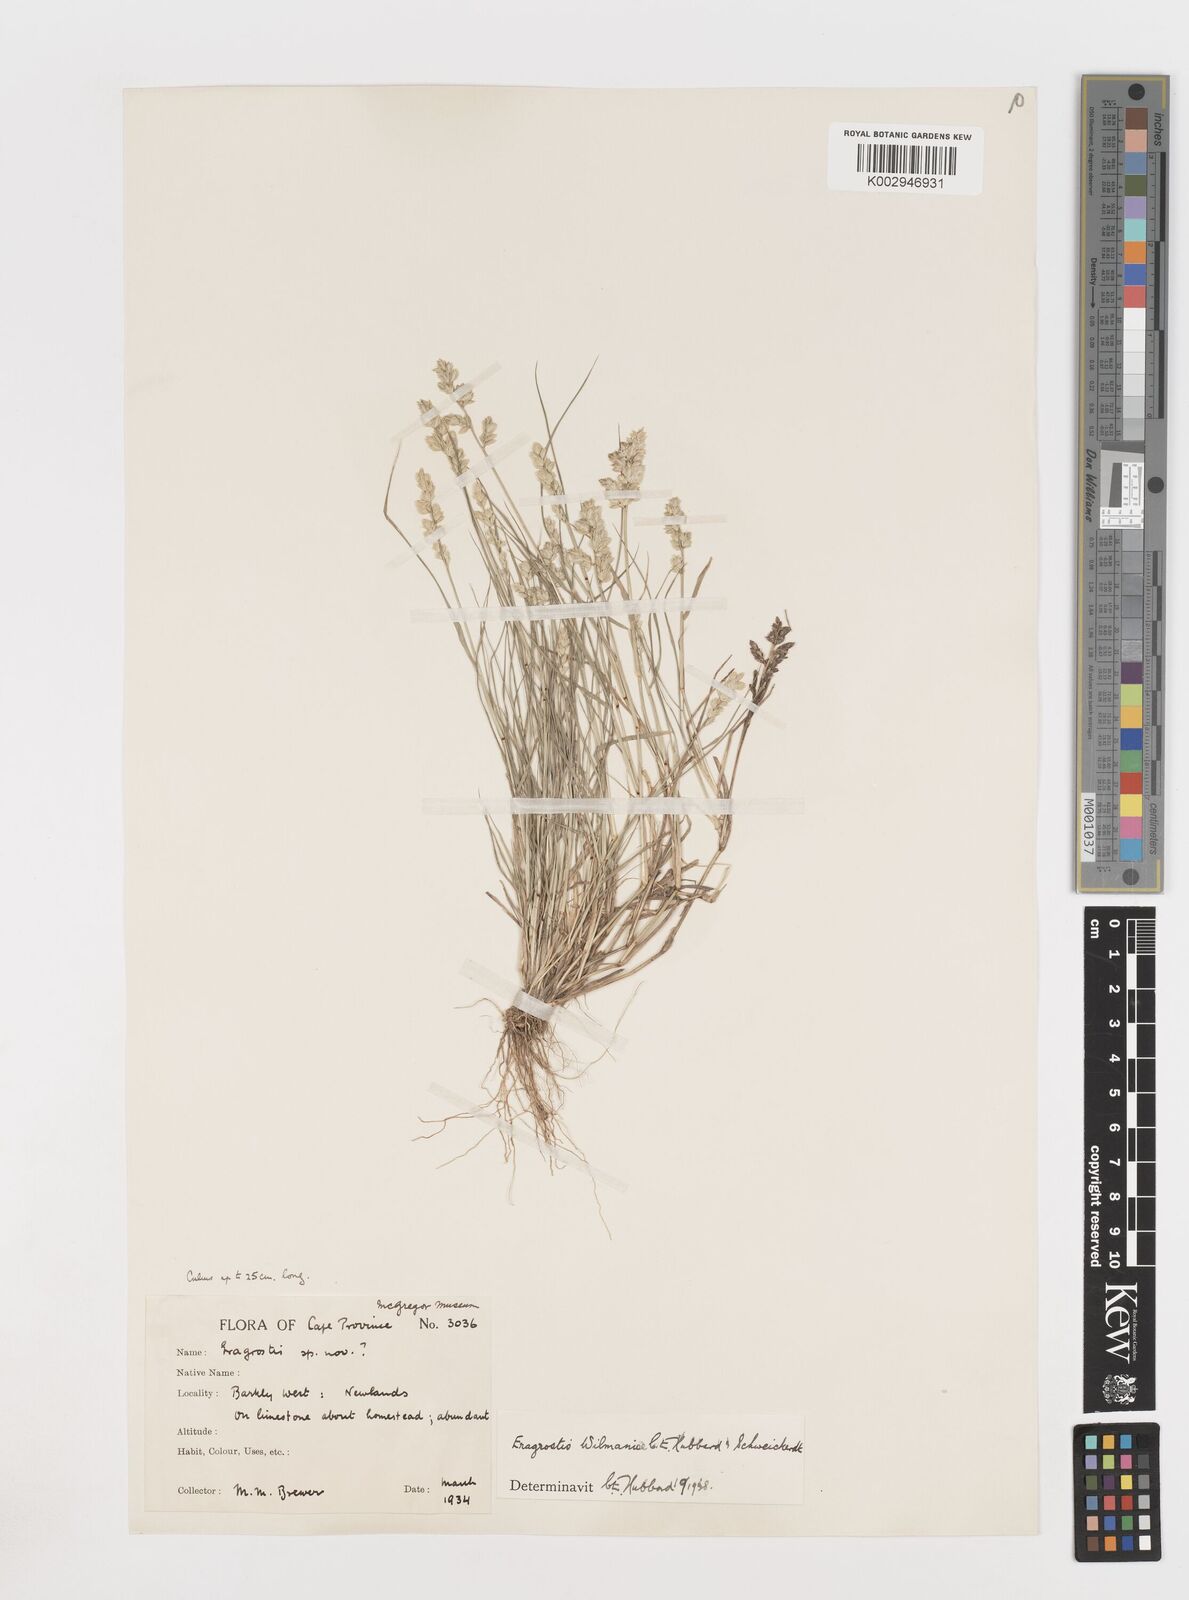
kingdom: Plantae
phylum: Tracheophyta
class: Liliopsida
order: Poales
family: Poaceae
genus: Eragrostis
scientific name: Eragrostis macrochlamys
